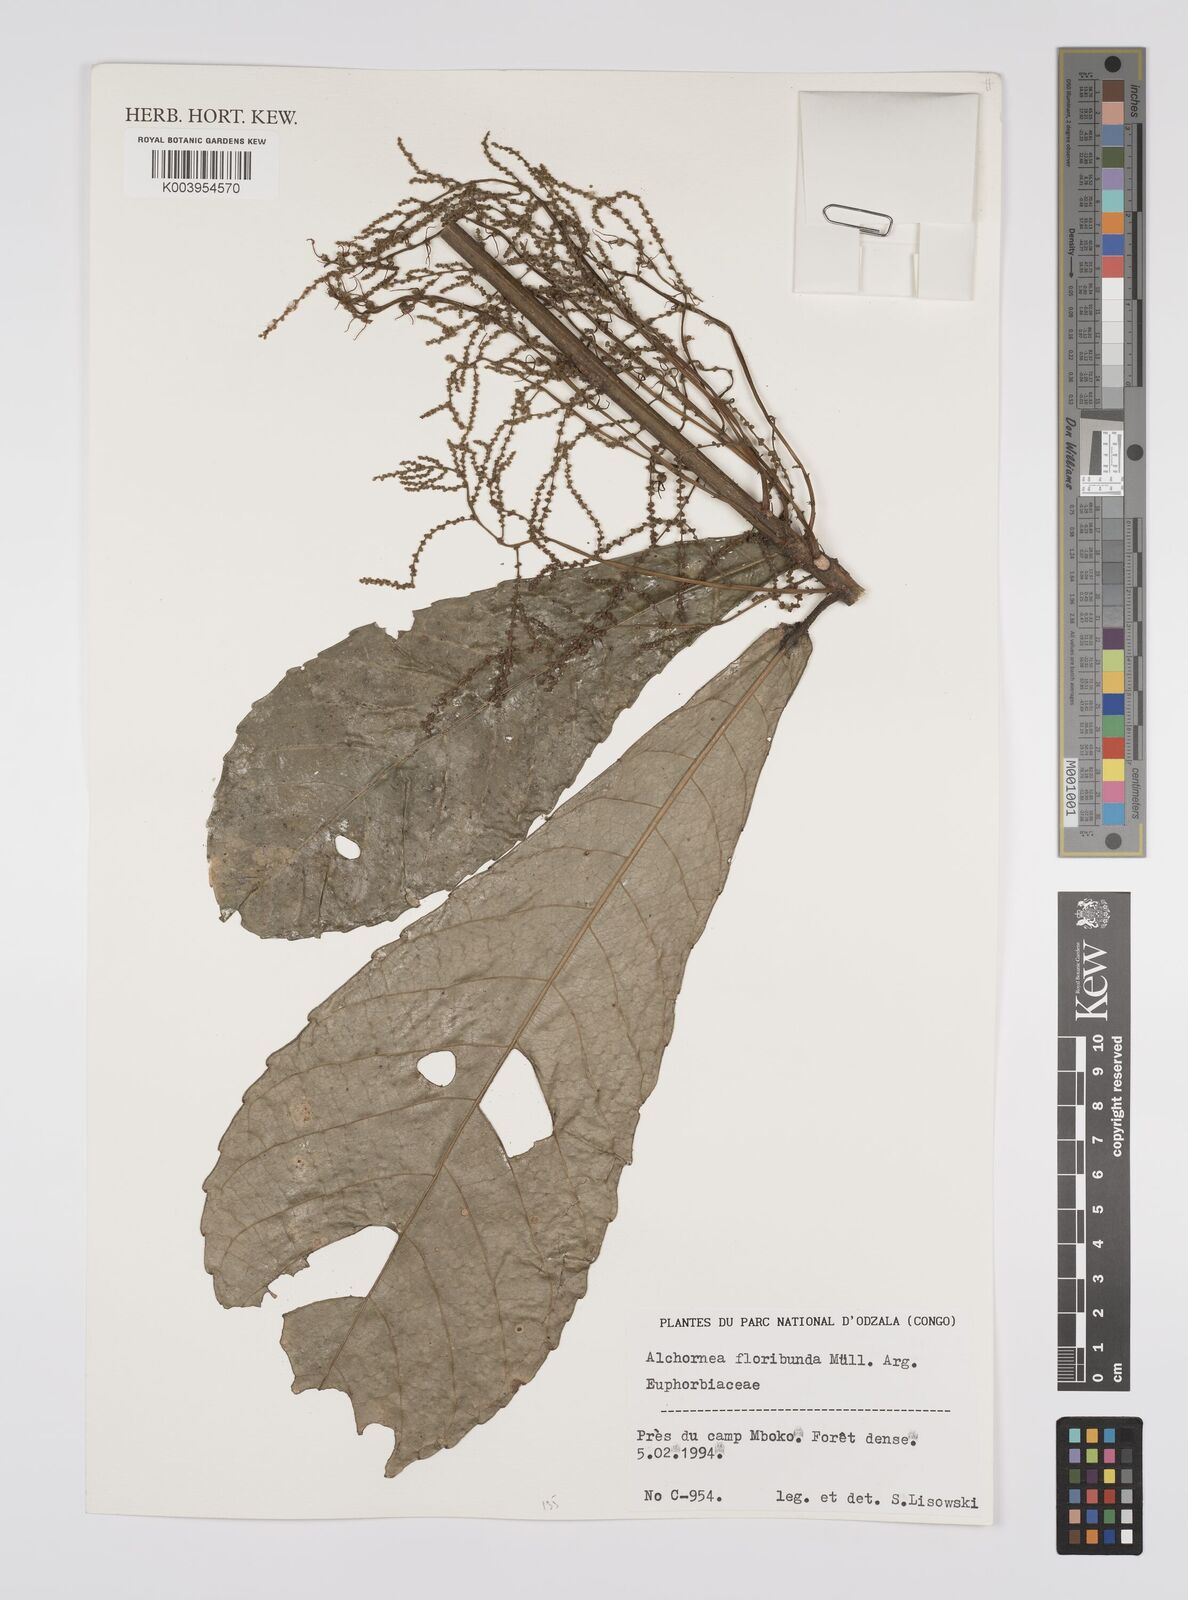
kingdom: Plantae
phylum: Tracheophyta
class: Magnoliopsida
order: Malpighiales
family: Euphorbiaceae
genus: Alchornea
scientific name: Alchornea floribunda
